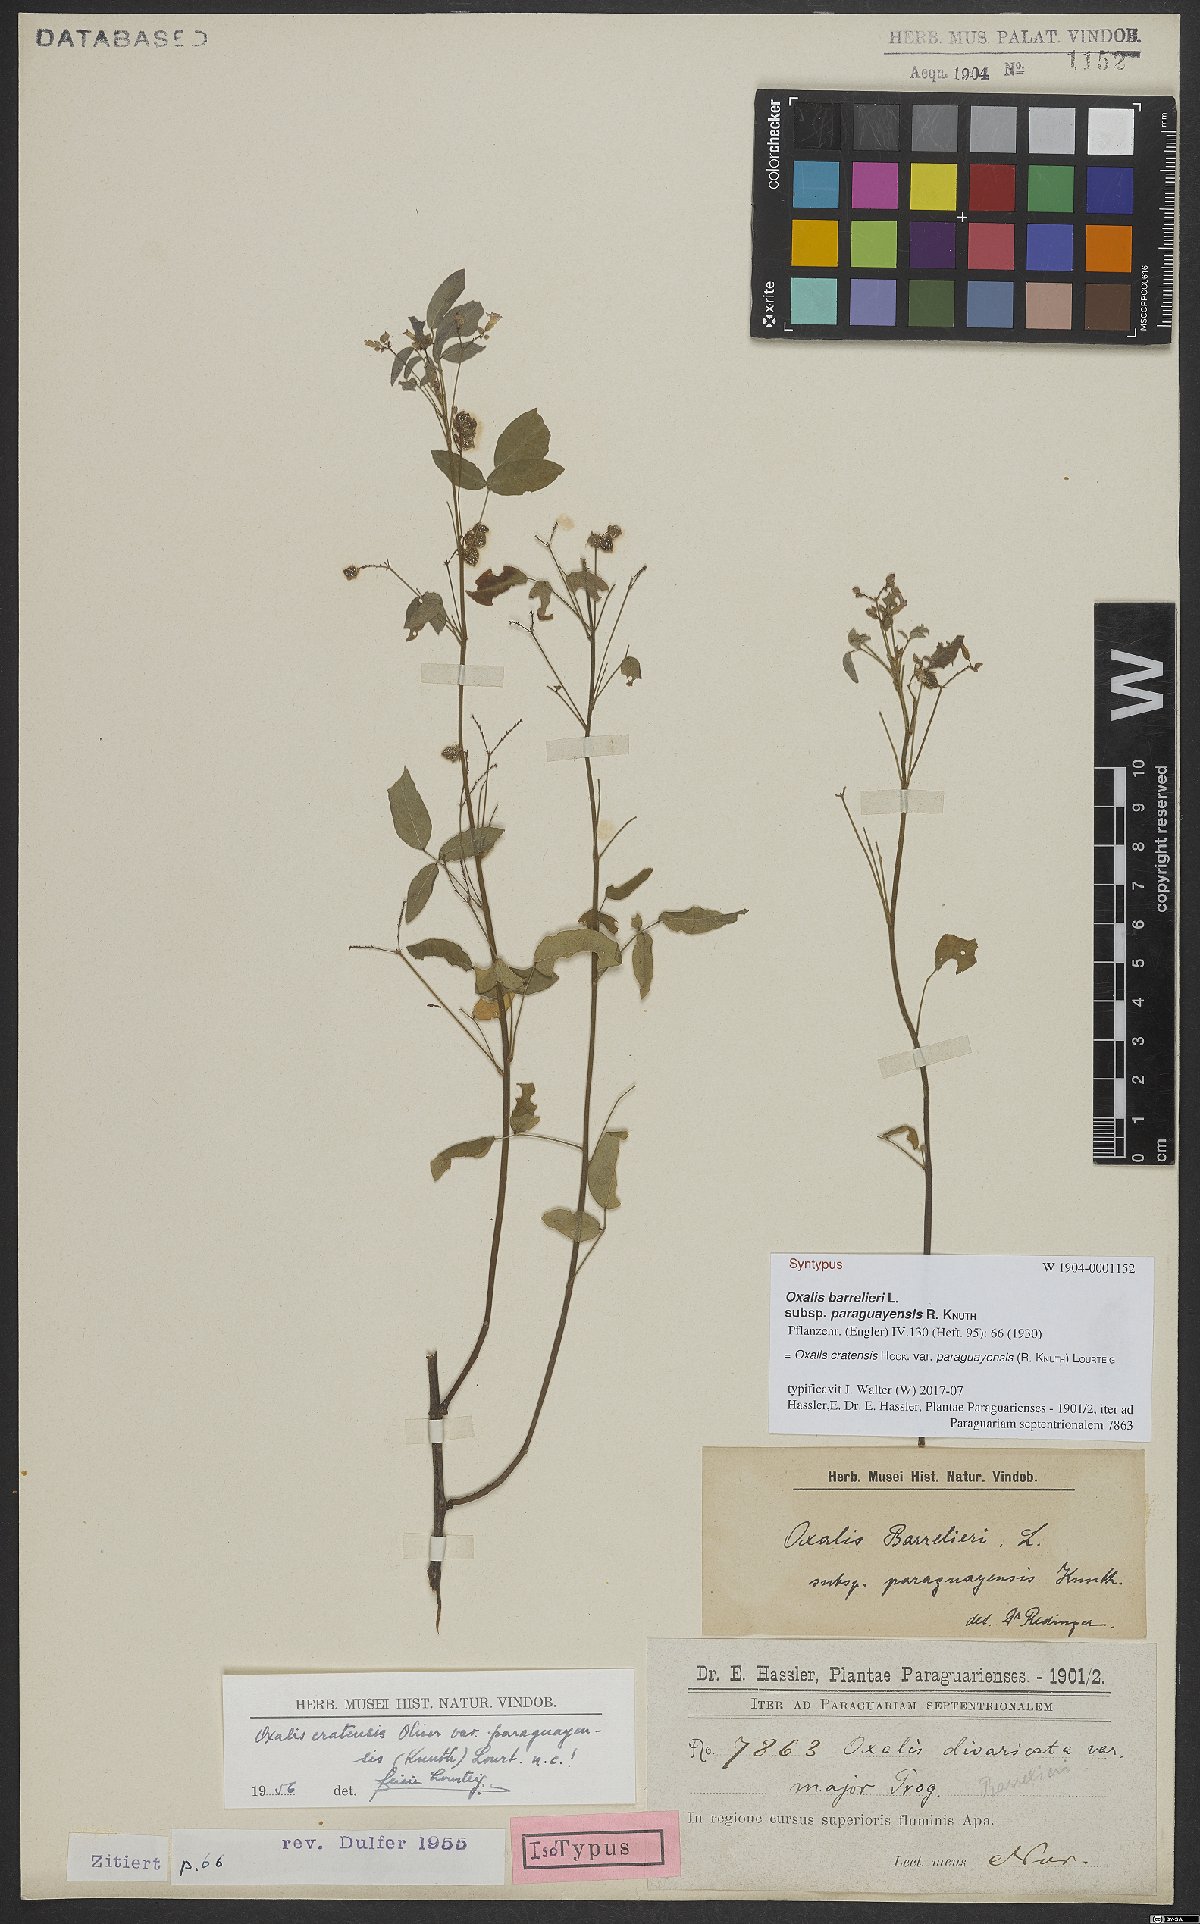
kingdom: Plantae
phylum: Tracheophyta
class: Magnoliopsida
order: Oxalidales
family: Oxalidaceae
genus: Oxalis
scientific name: Oxalis cratensis
